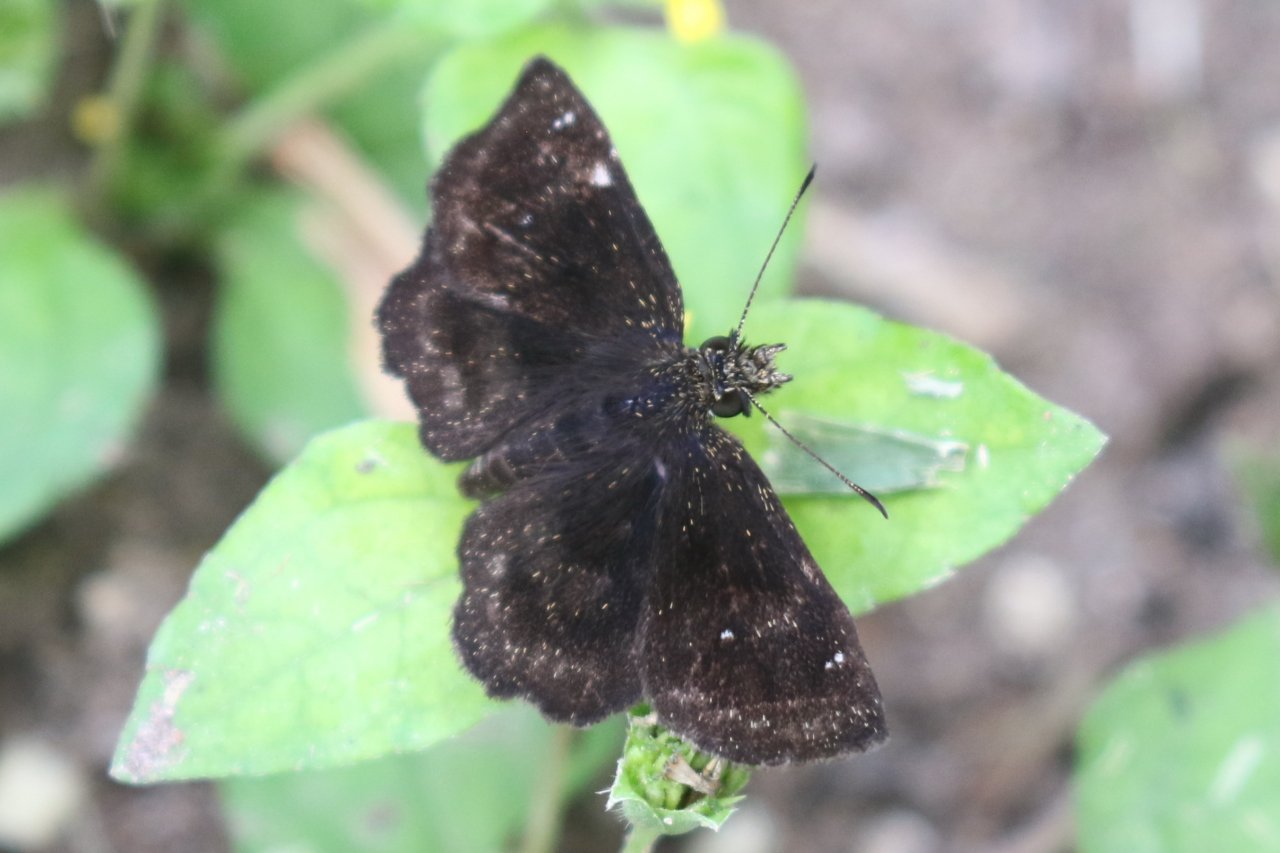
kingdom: Animalia
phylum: Arthropoda
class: Insecta
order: Lepidoptera
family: Hesperiidae
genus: Staphylus
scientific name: Staphylus mazans
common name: Mazans Scallopwing
